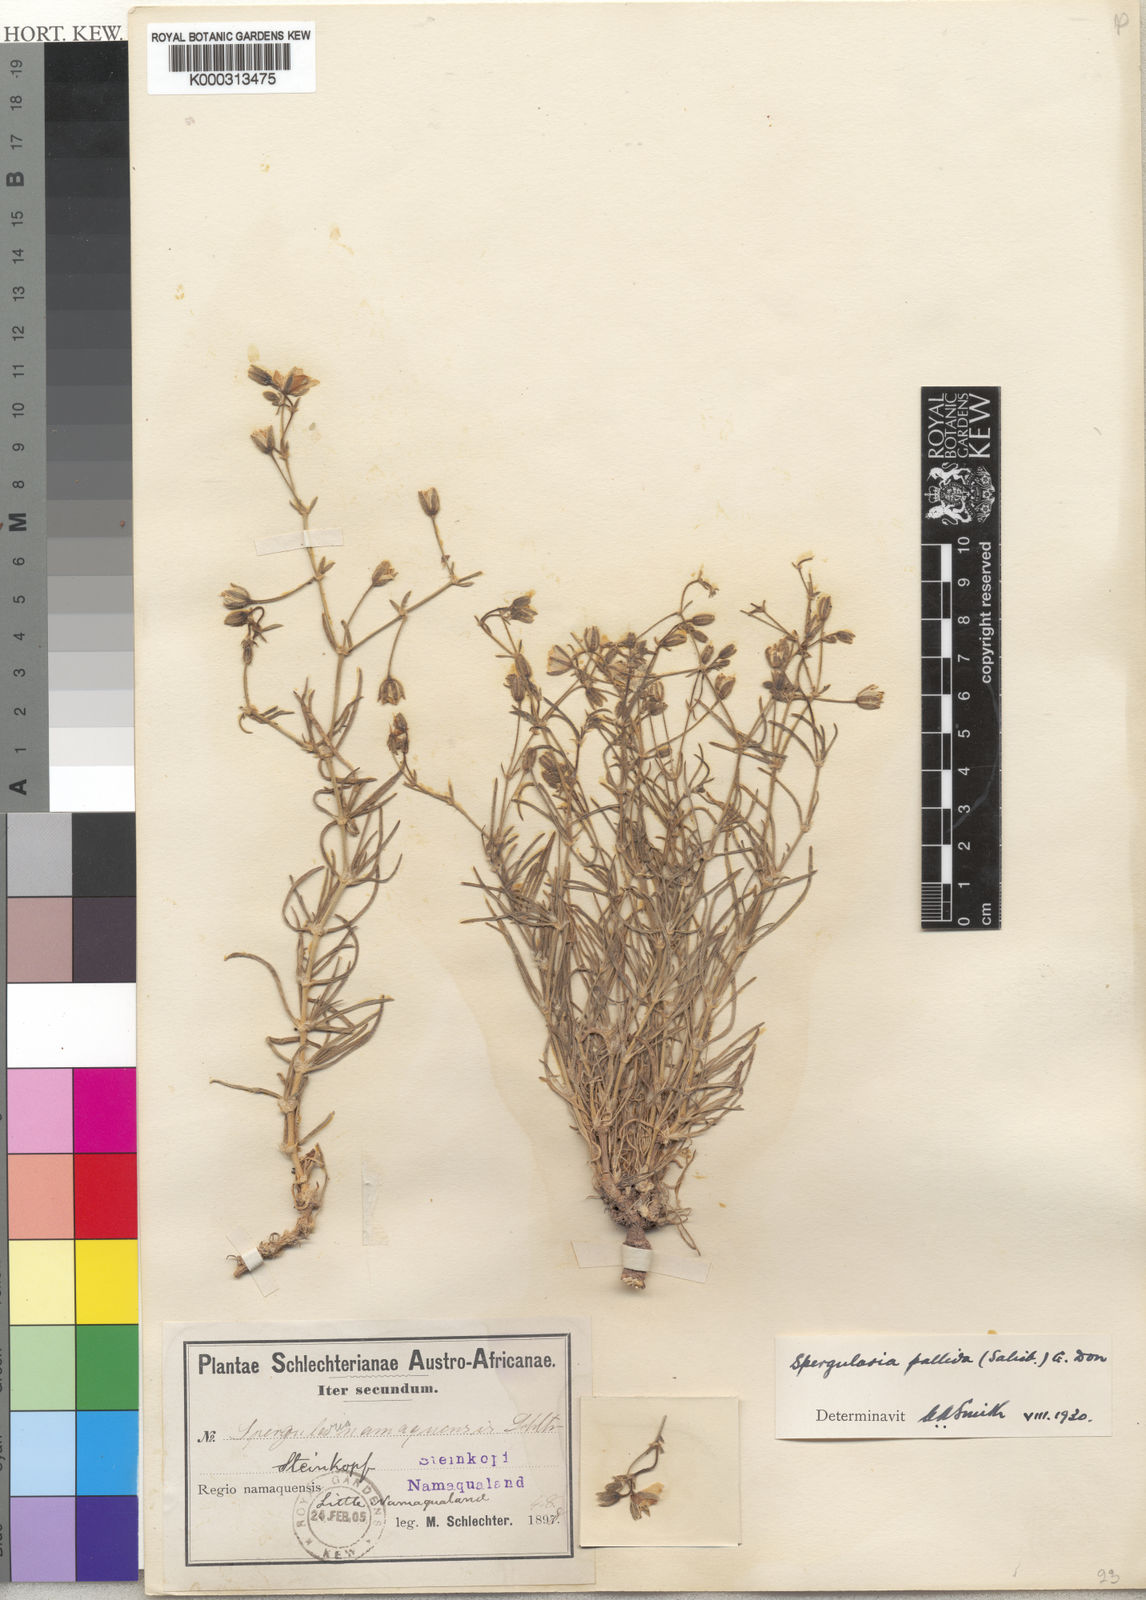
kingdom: Plantae
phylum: Tracheophyta
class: Magnoliopsida
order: Caryophyllales
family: Caryophyllaceae
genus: Spergularia
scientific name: Spergularia media
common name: Greater sea-spurrey
